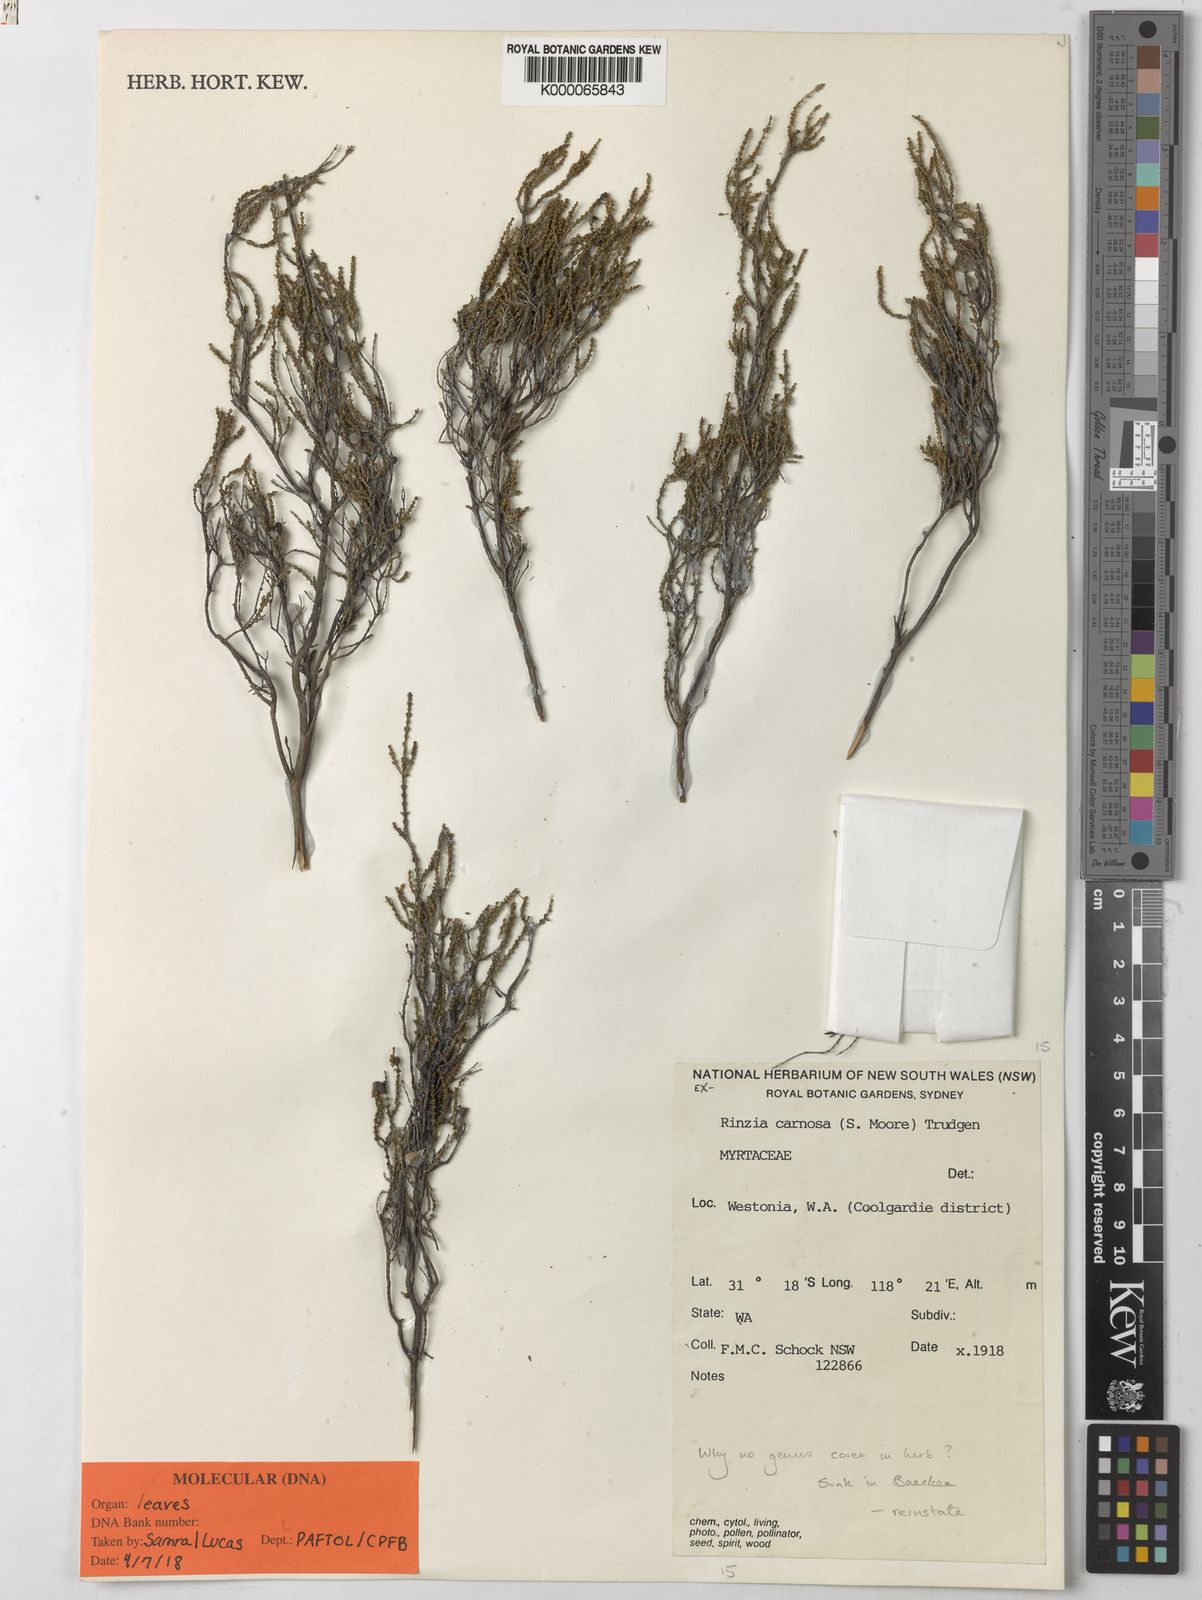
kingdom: Plantae
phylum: Tracheophyta
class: Magnoliopsida
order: Myrtales
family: Myrtaceae
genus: Rinzia
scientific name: Rinzia carnosa
